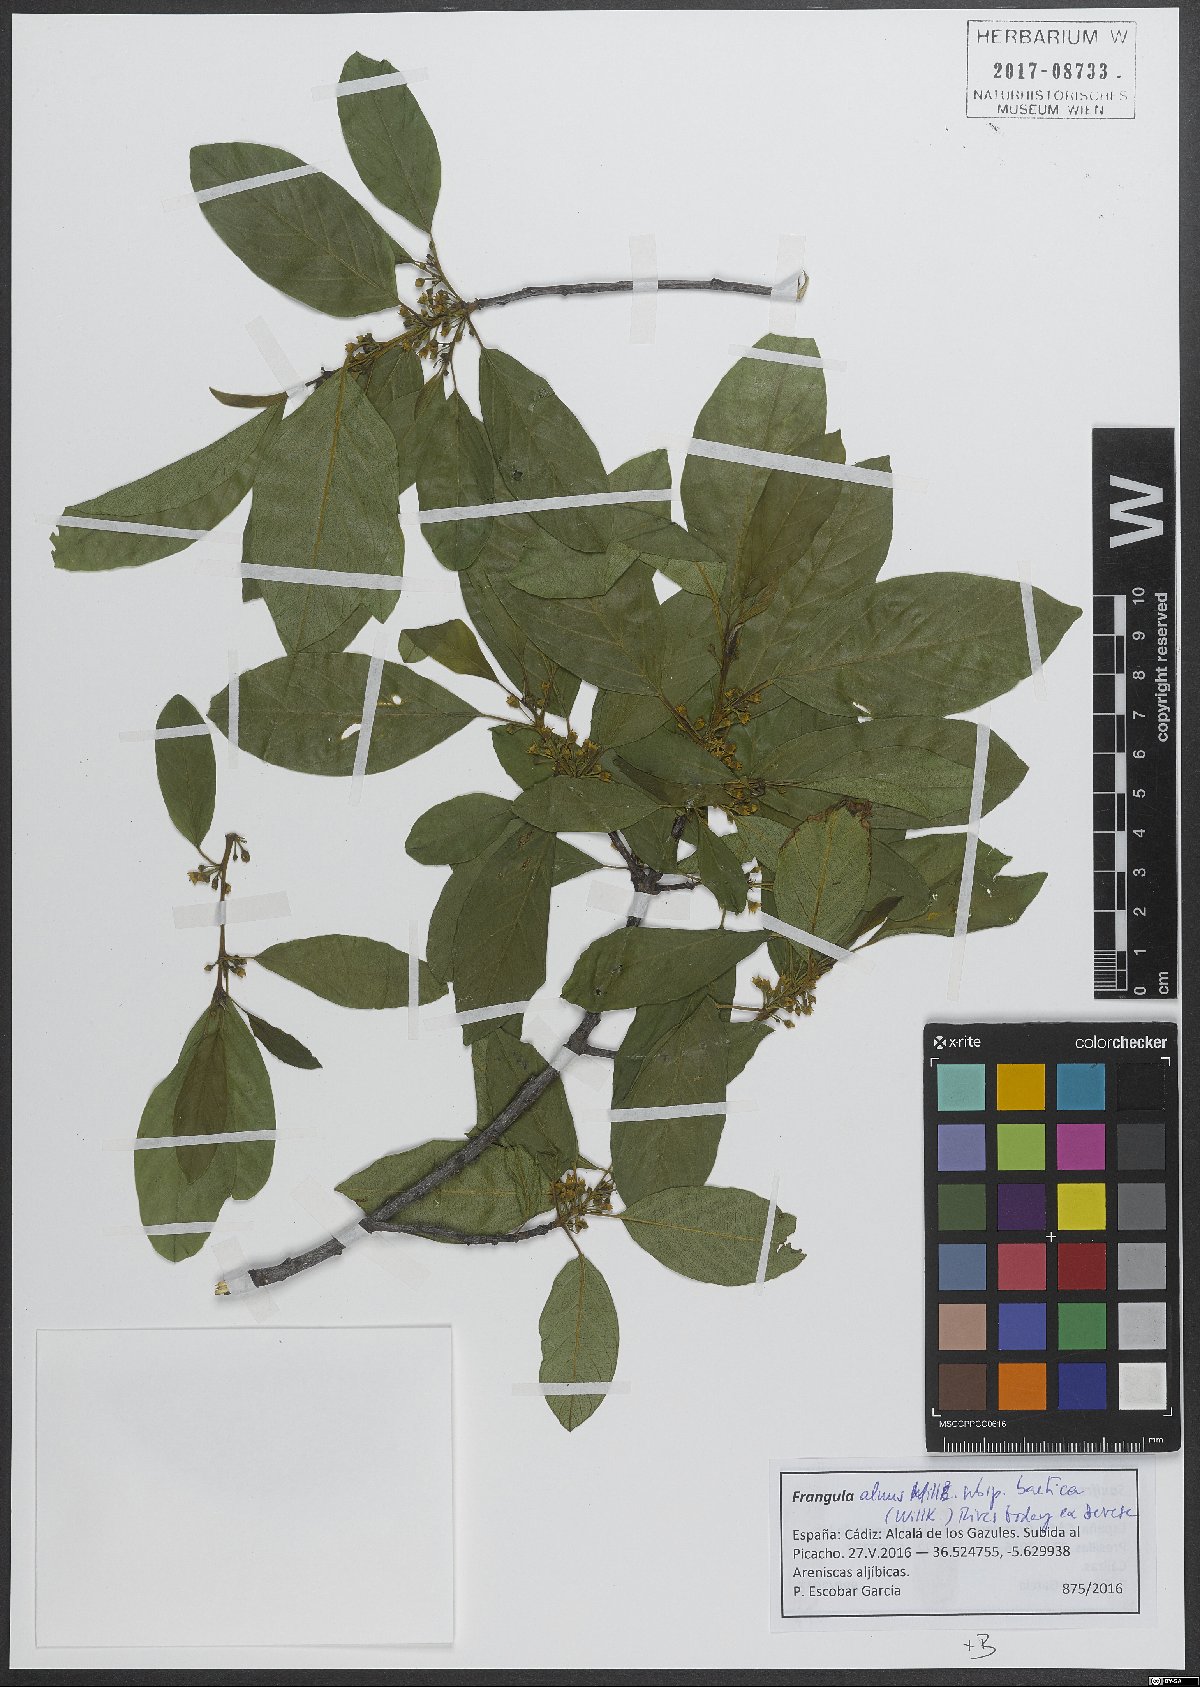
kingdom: Plantae
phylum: Tracheophyta
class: Magnoliopsida
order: Rosales
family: Rhamnaceae
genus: Frangula
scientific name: Frangula alnus
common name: Alder buckthorn
